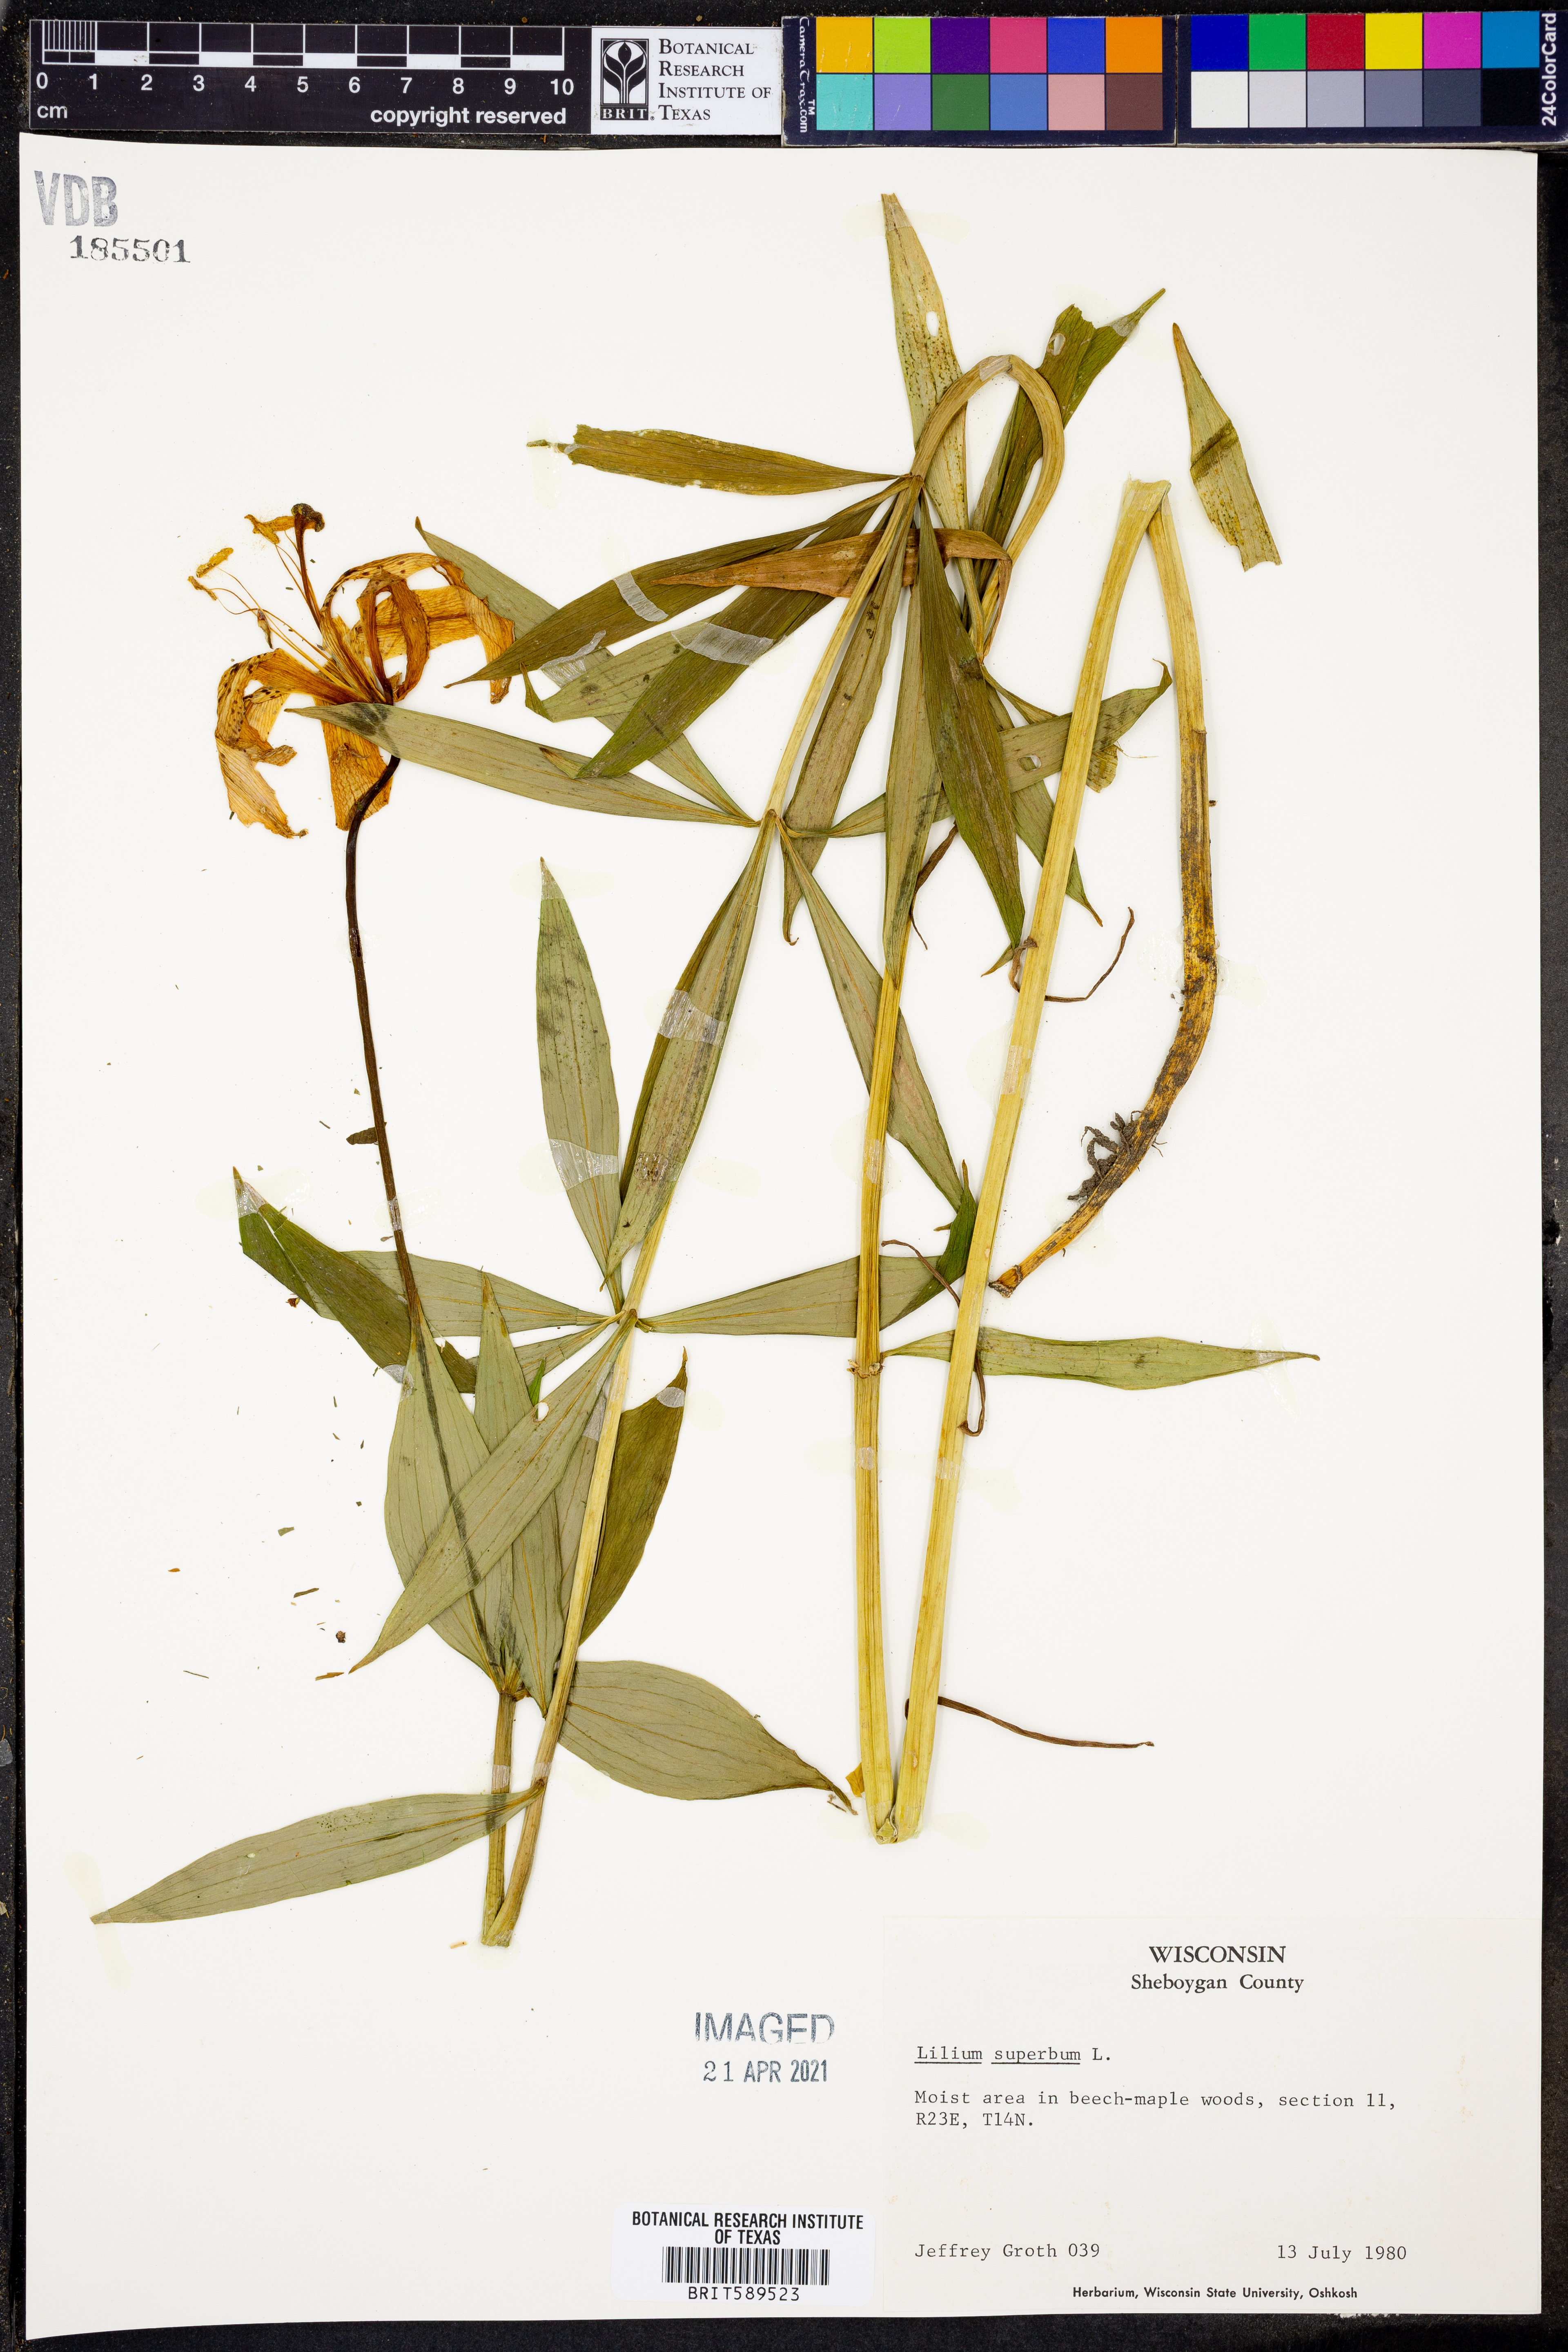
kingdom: Plantae
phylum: Tracheophyta
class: Liliopsida
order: Liliales
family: Liliaceae
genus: Lilium
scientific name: Lilium superbum
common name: American turk's-cap lily
